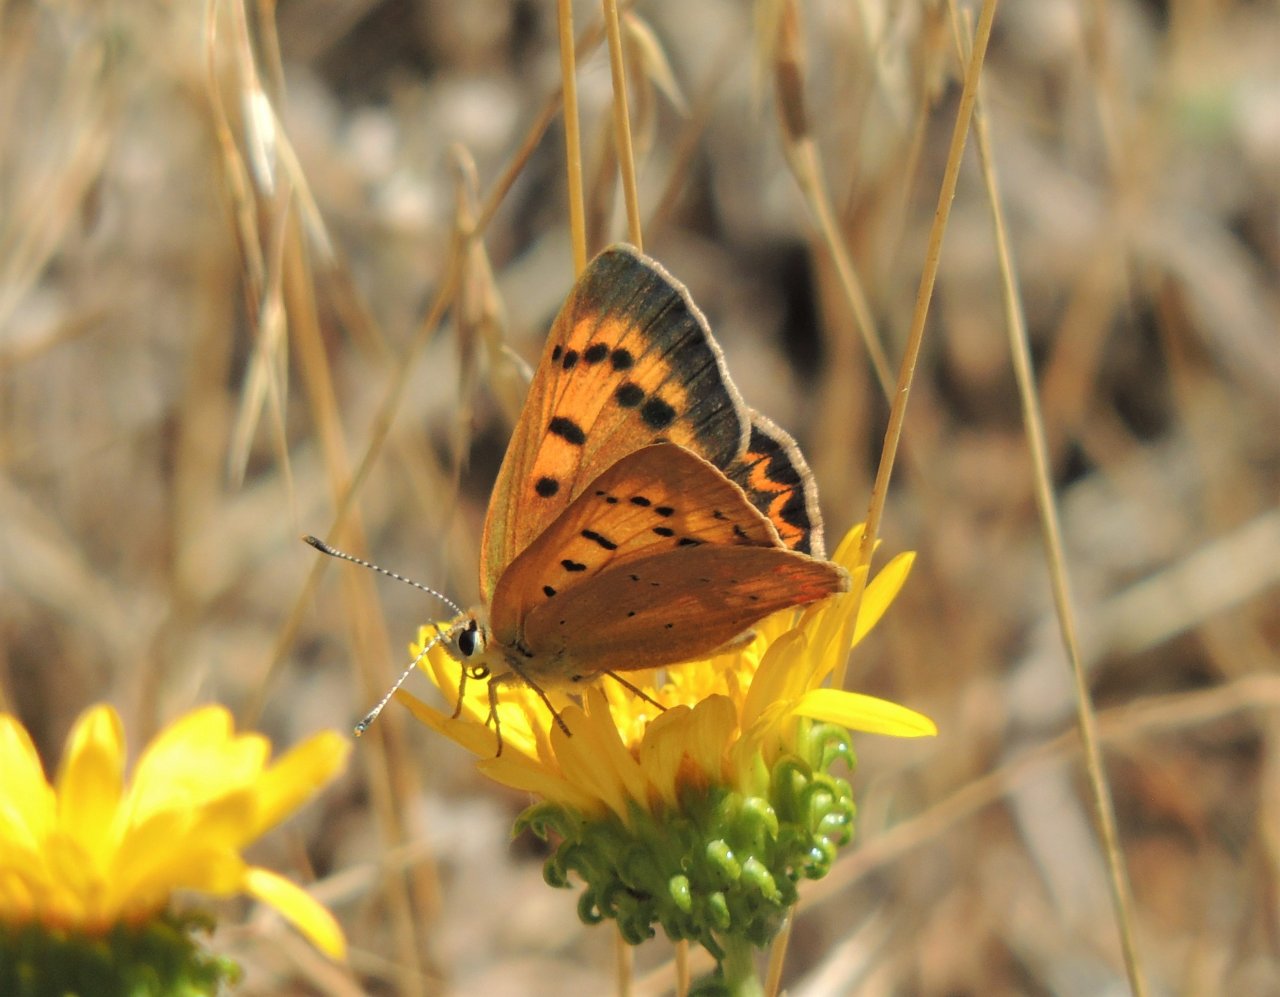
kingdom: Animalia
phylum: Arthropoda
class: Insecta
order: Lepidoptera
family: Sesiidae
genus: Sesia
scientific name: Sesia Lycaena helloides
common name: Purplish Copper
